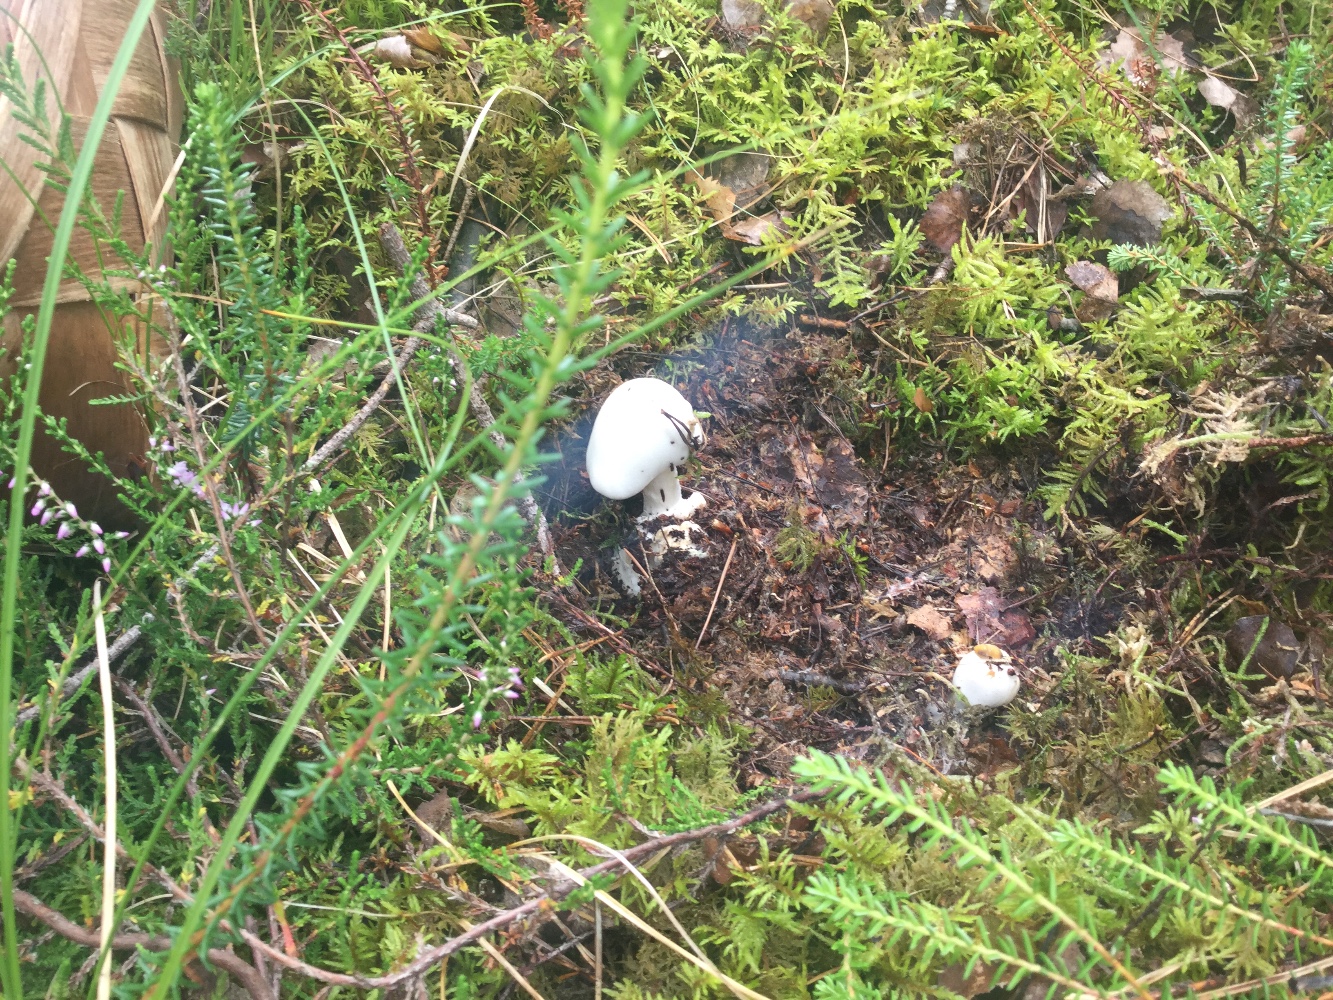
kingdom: Fungi
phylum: Basidiomycota
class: Agaricomycetes
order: Agaricales
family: Amanitaceae
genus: Amanita
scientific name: Amanita virosa
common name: snehvid fluesvamp
